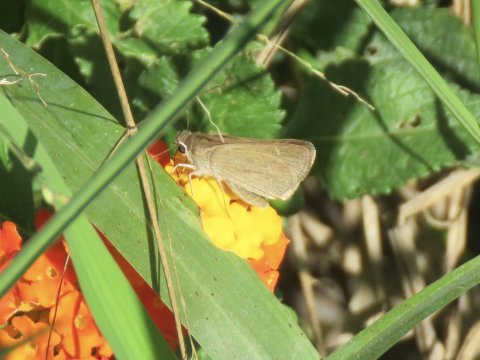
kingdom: Animalia
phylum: Arthropoda
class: Insecta
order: Lepidoptera
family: Hesperiidae
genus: Nastra
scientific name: Nastra julia
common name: Julia's Skipper
